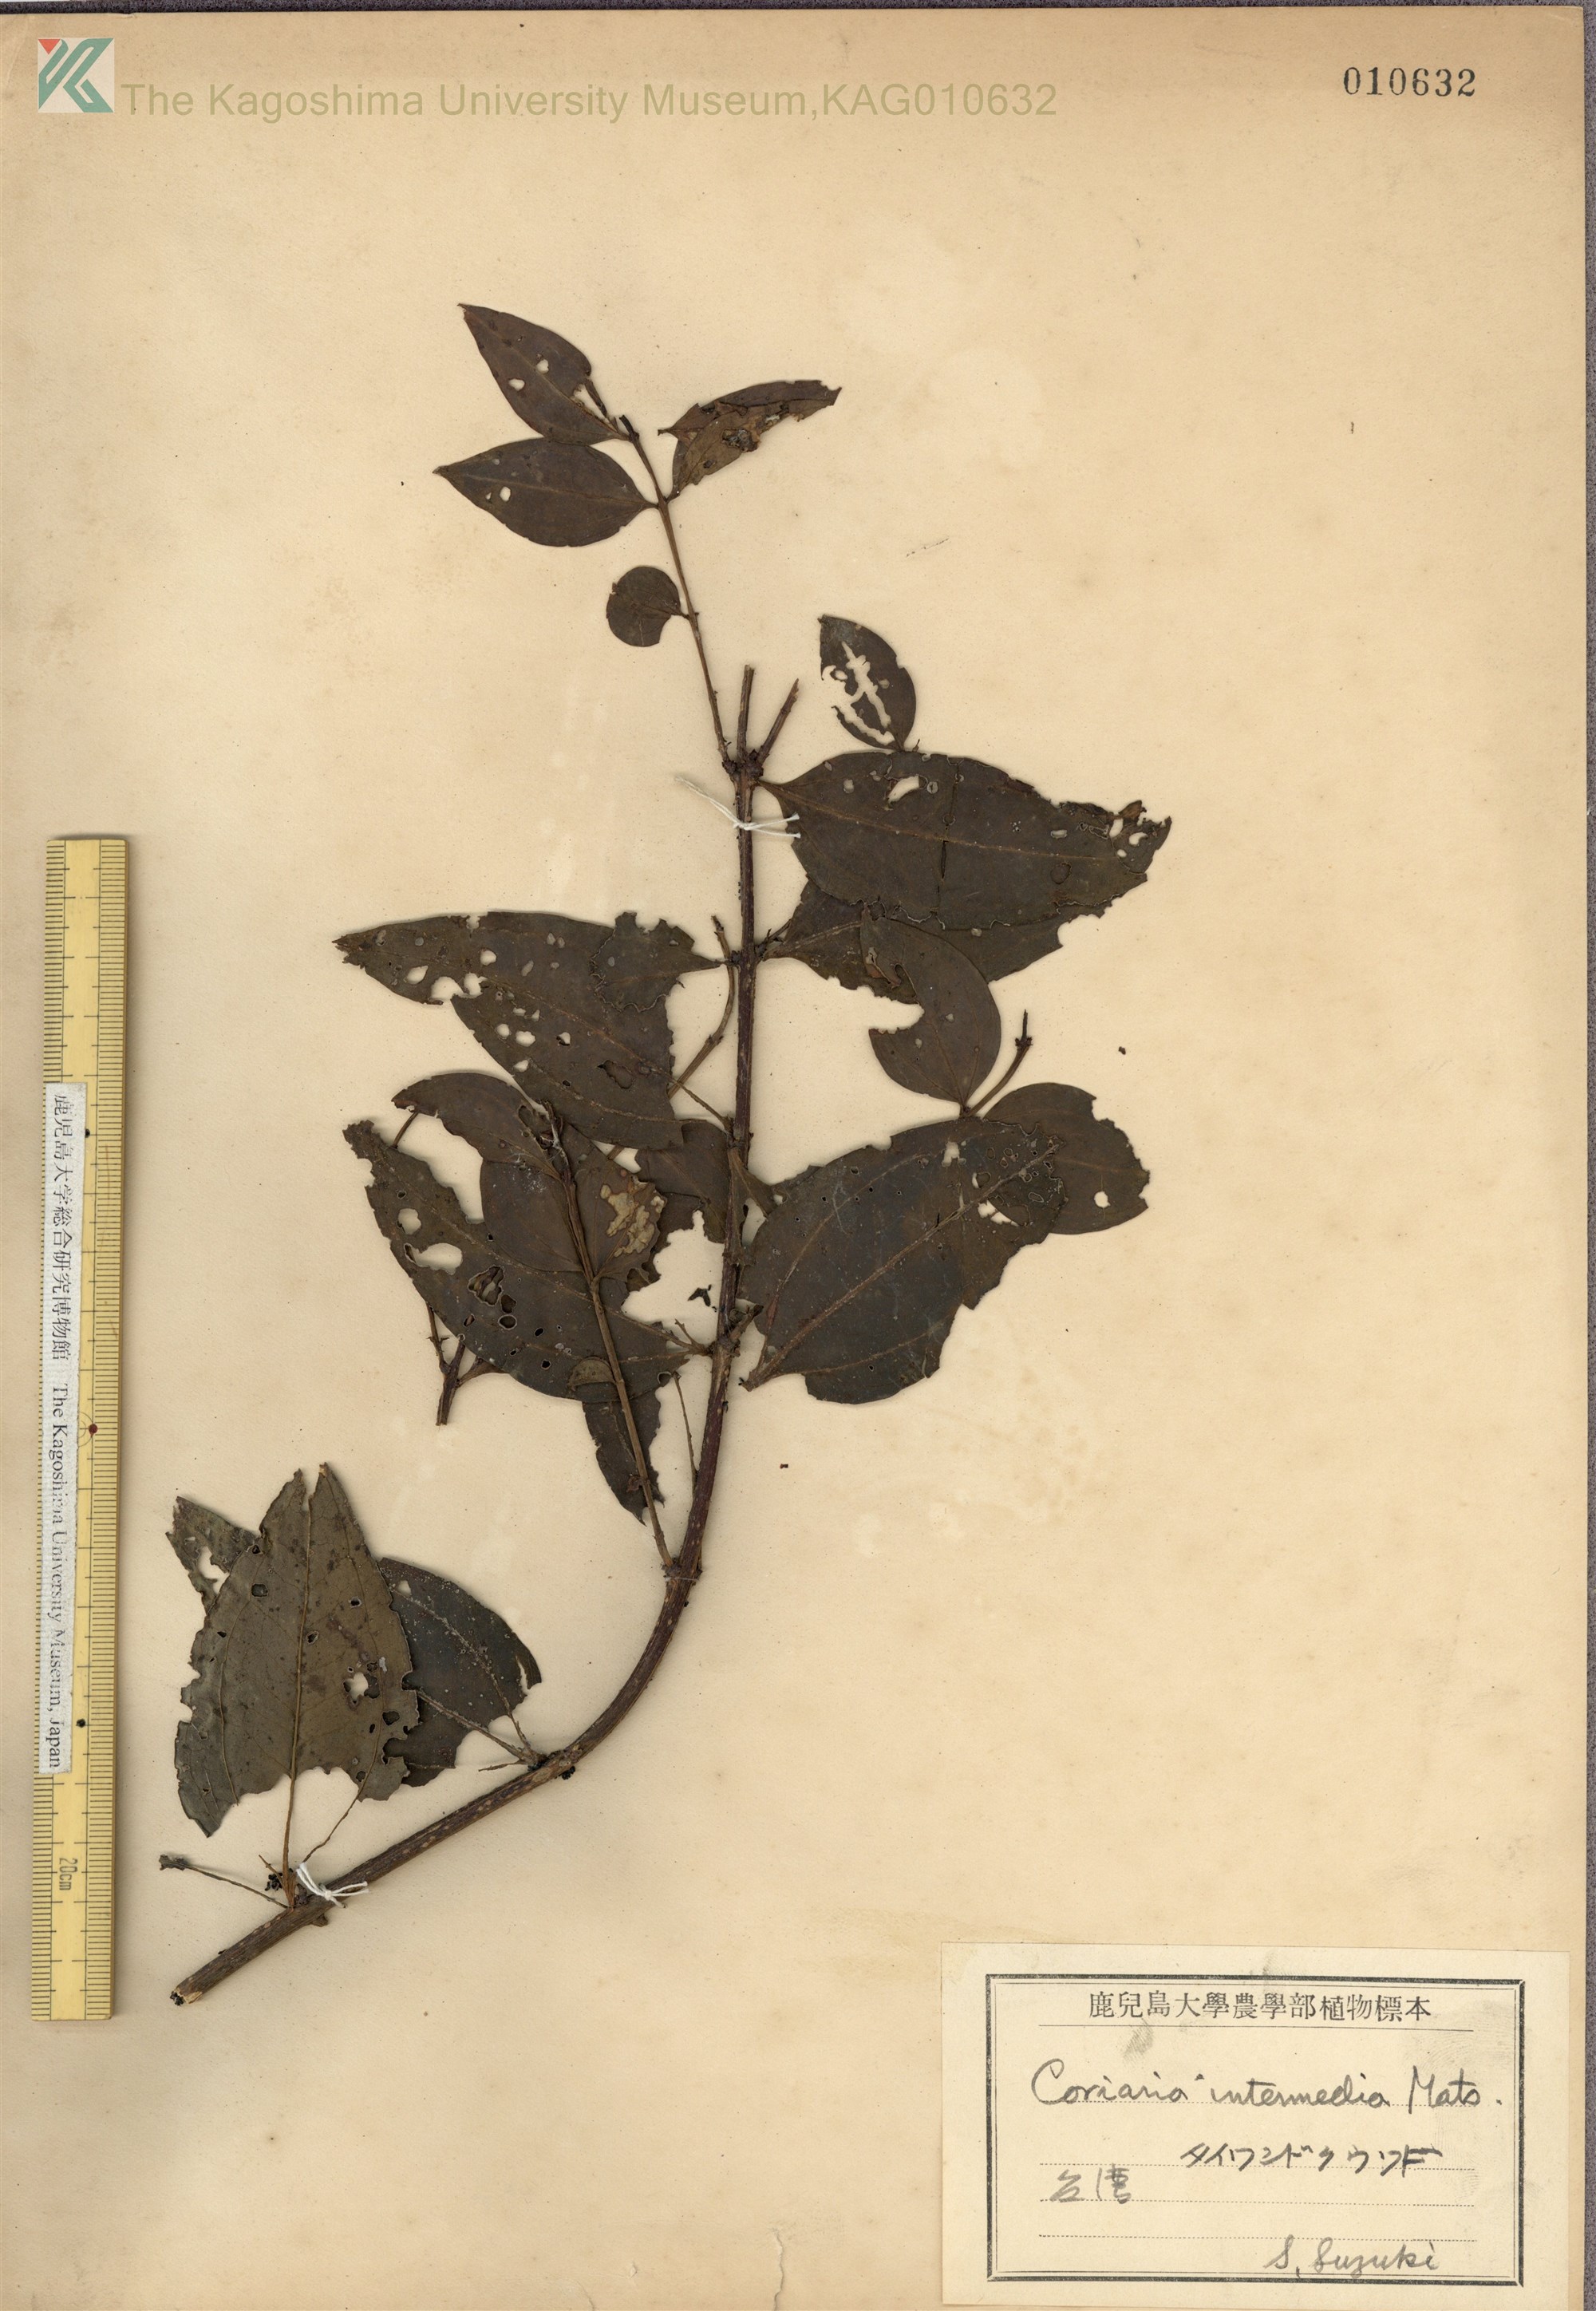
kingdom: Plantae
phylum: Tracheophyta
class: Magnoliopsida
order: Cucurbitales
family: Coriariaceae
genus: Coriaria
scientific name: Coriaria japonica
